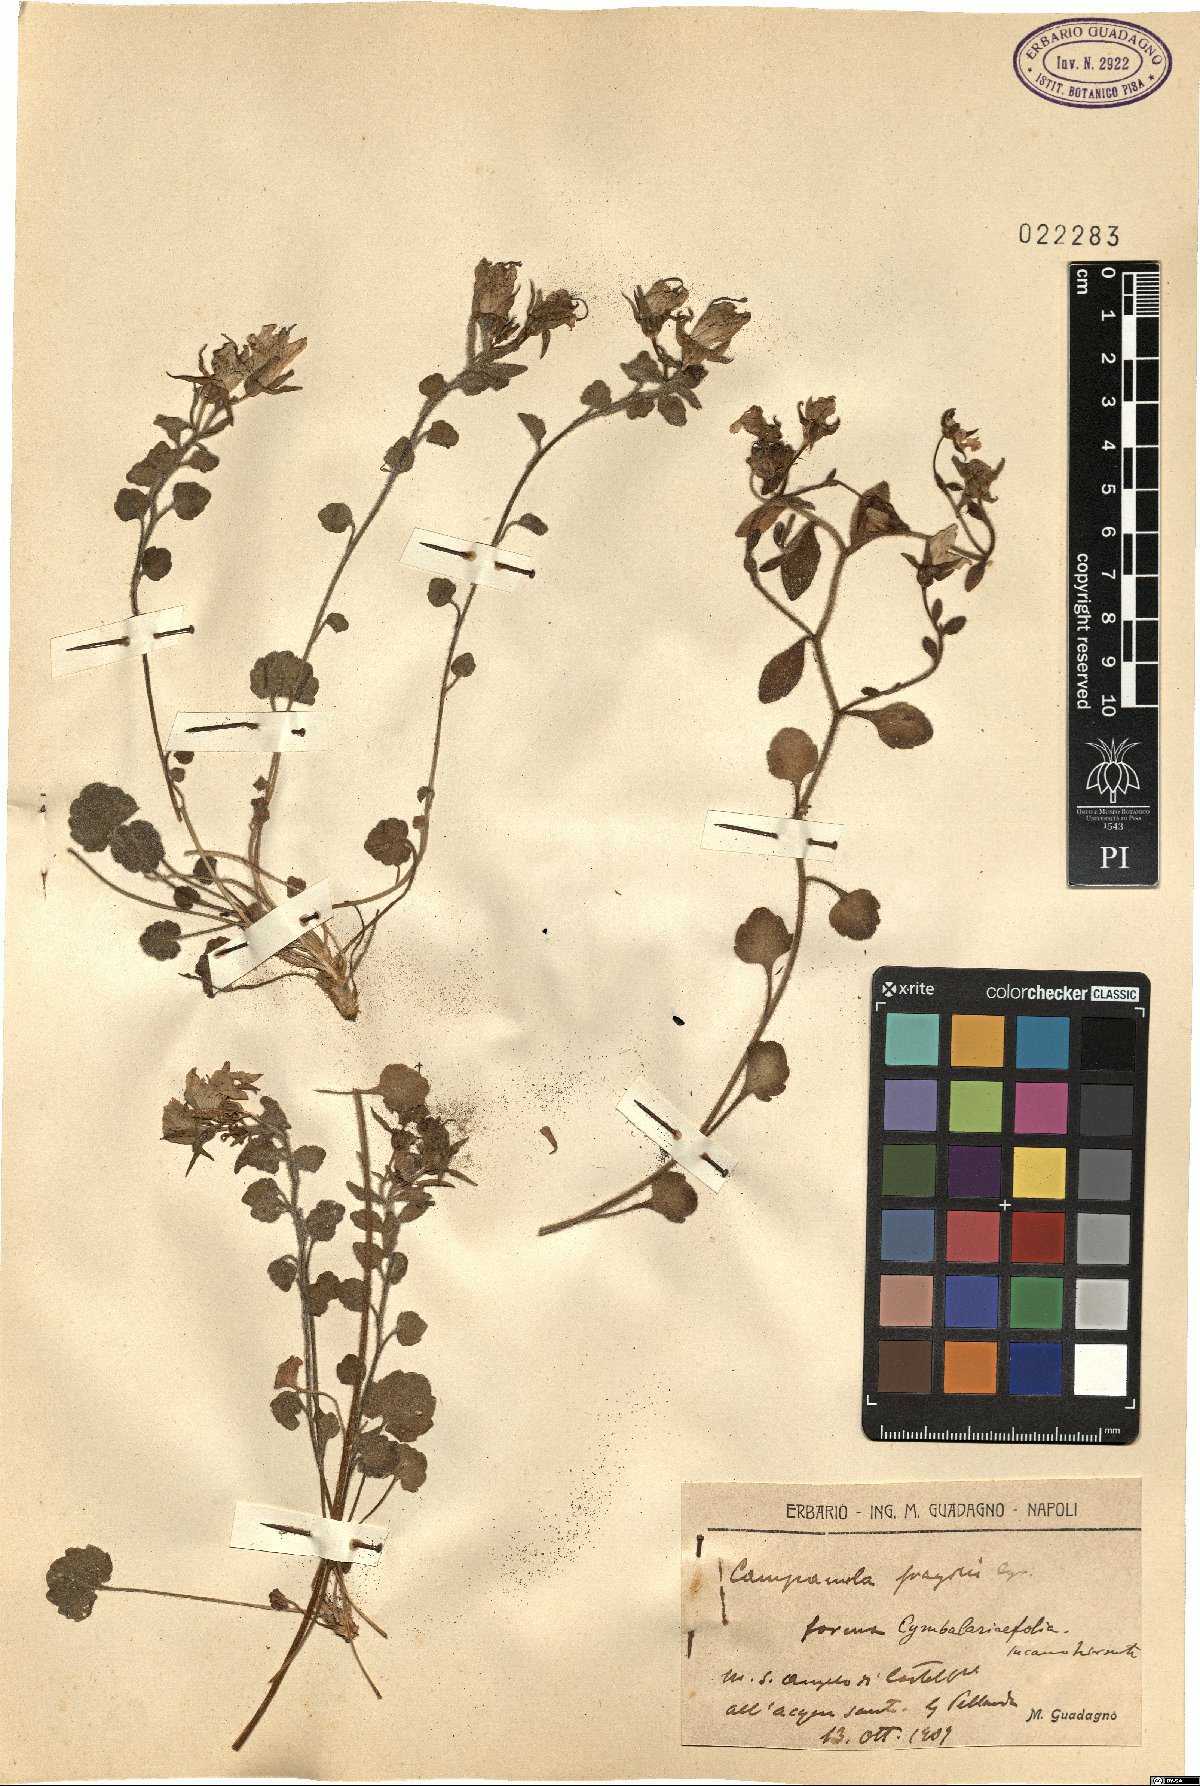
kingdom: Plantae
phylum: Tracheophyta
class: Magnoliopsida
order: Asterales
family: Campanulaceae
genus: Campanula
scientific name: Campanula fragilis
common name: Italian bellflower
